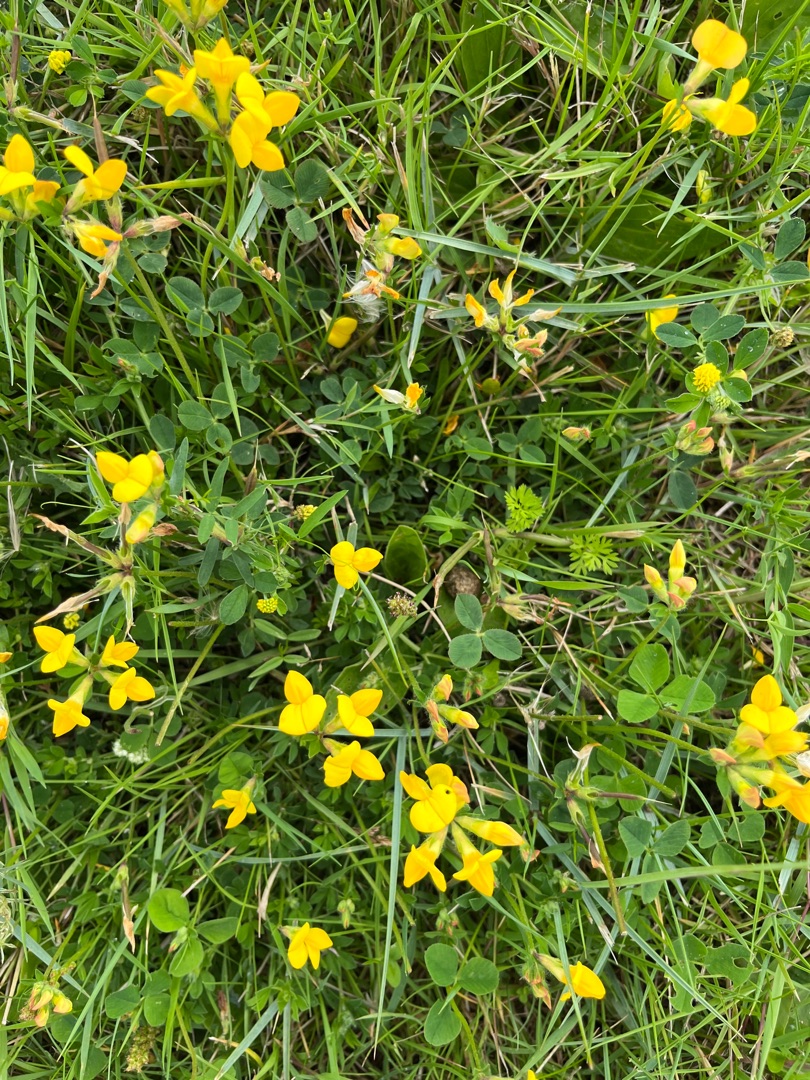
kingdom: Plantae
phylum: Tracheophyta
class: Magnoliopsida
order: Fabales
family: Fabaceae
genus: Lotus
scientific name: Lotus corniculatus
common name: Almindelig kællingetand
